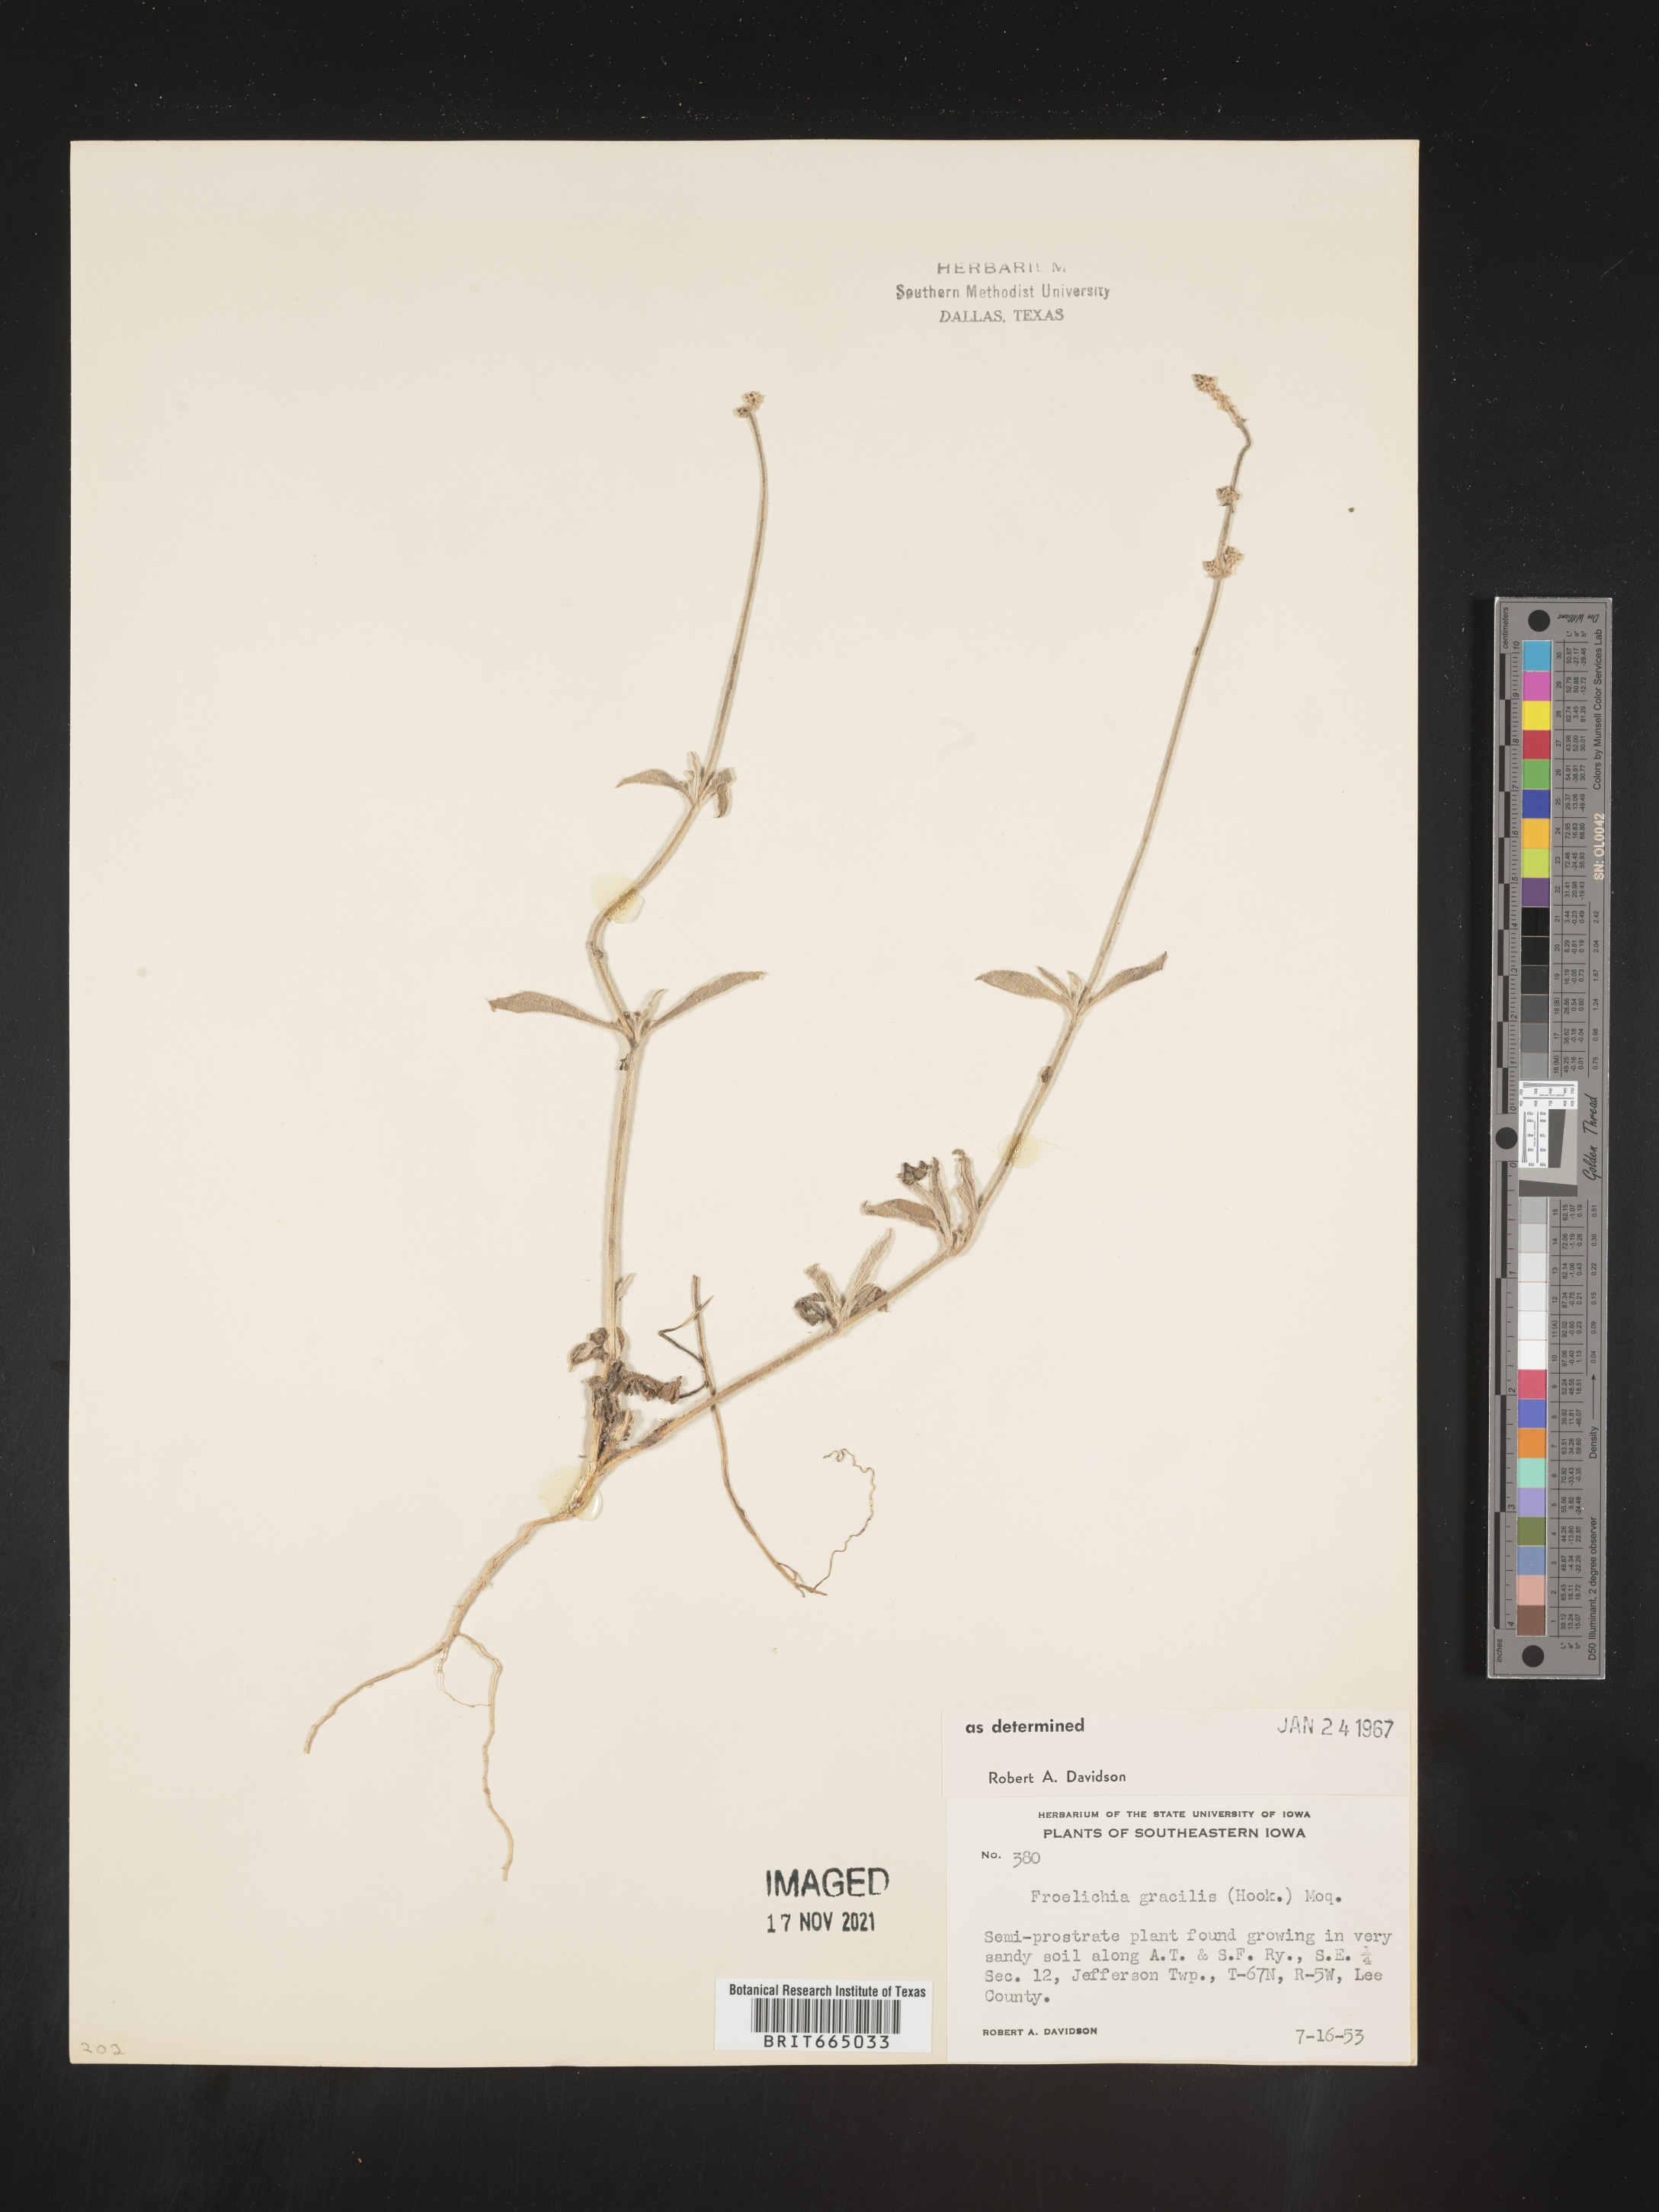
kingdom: Plantae
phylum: Tracheophyta
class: Magnoliopsida
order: Caryophyllales
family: Amaranthaceae
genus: Froelichia
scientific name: Froelichia gracilis
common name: Slender cottonweed
